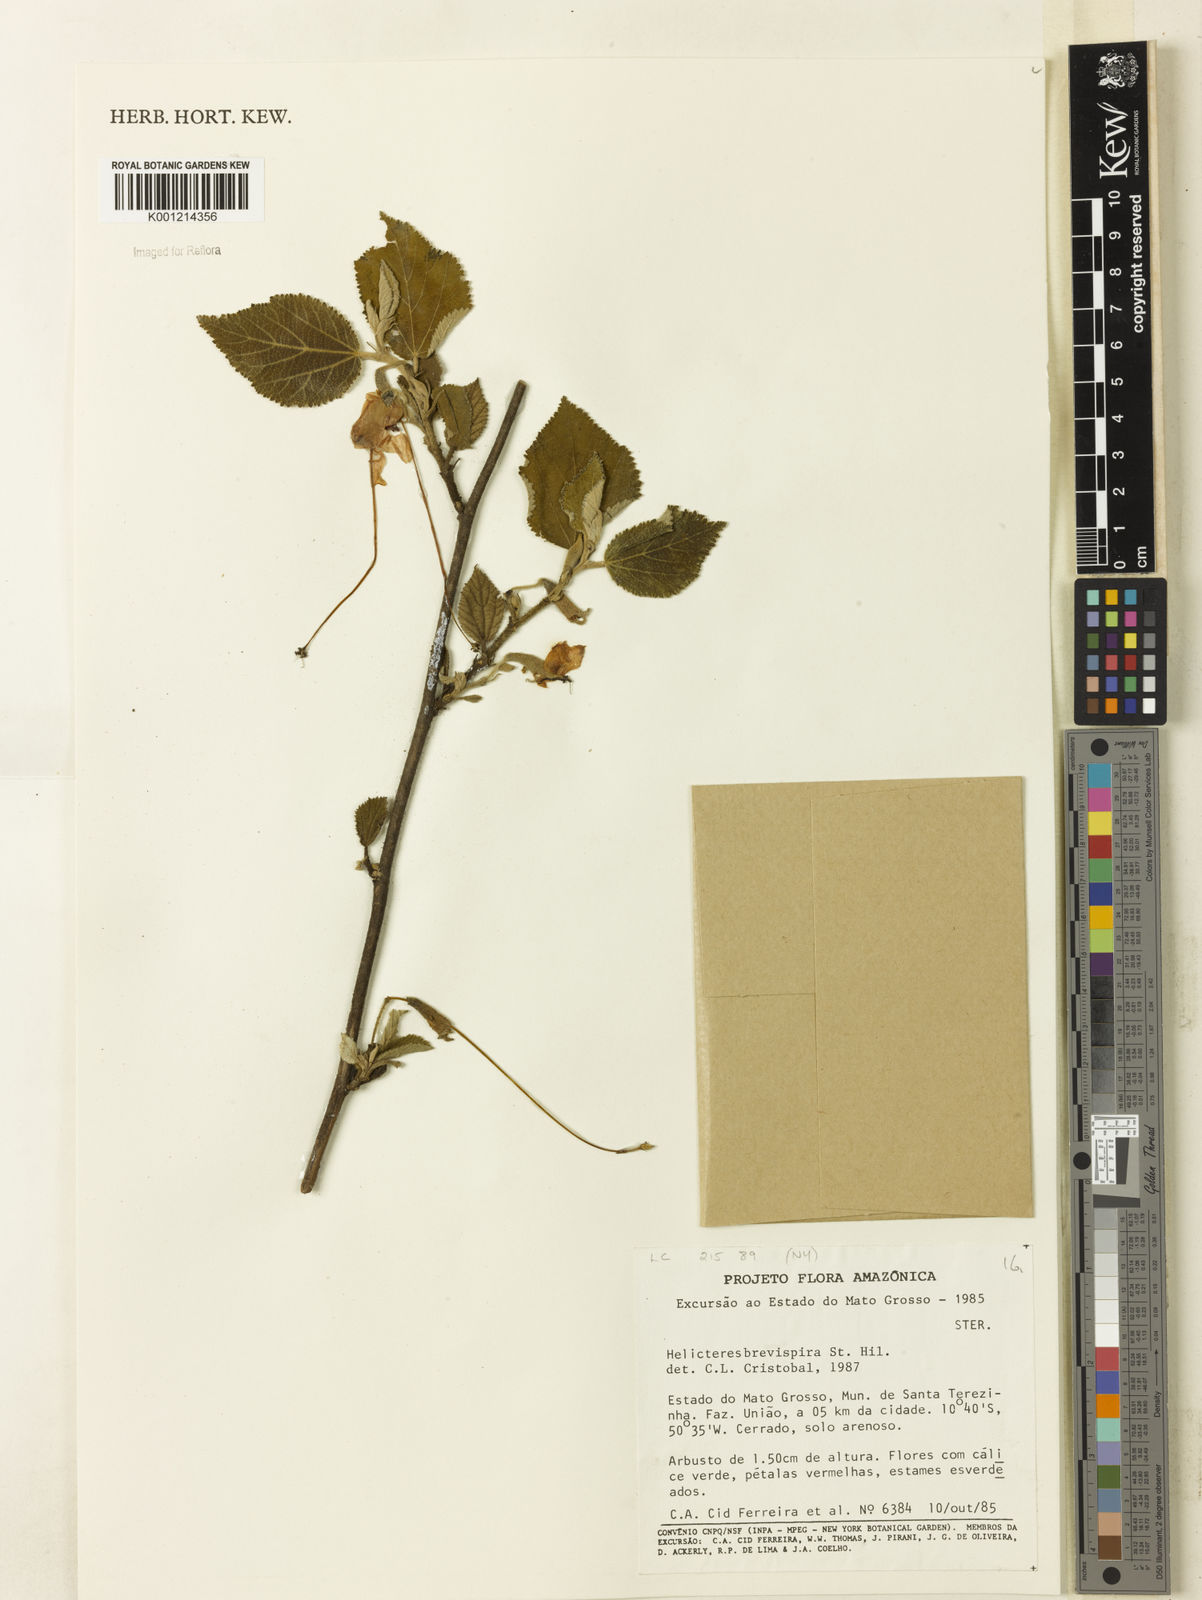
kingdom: Plantae
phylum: Tracheophyta
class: Magnoliopsida
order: Malvales
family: Malvaceae
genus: Helicteres
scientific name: Helicteres
